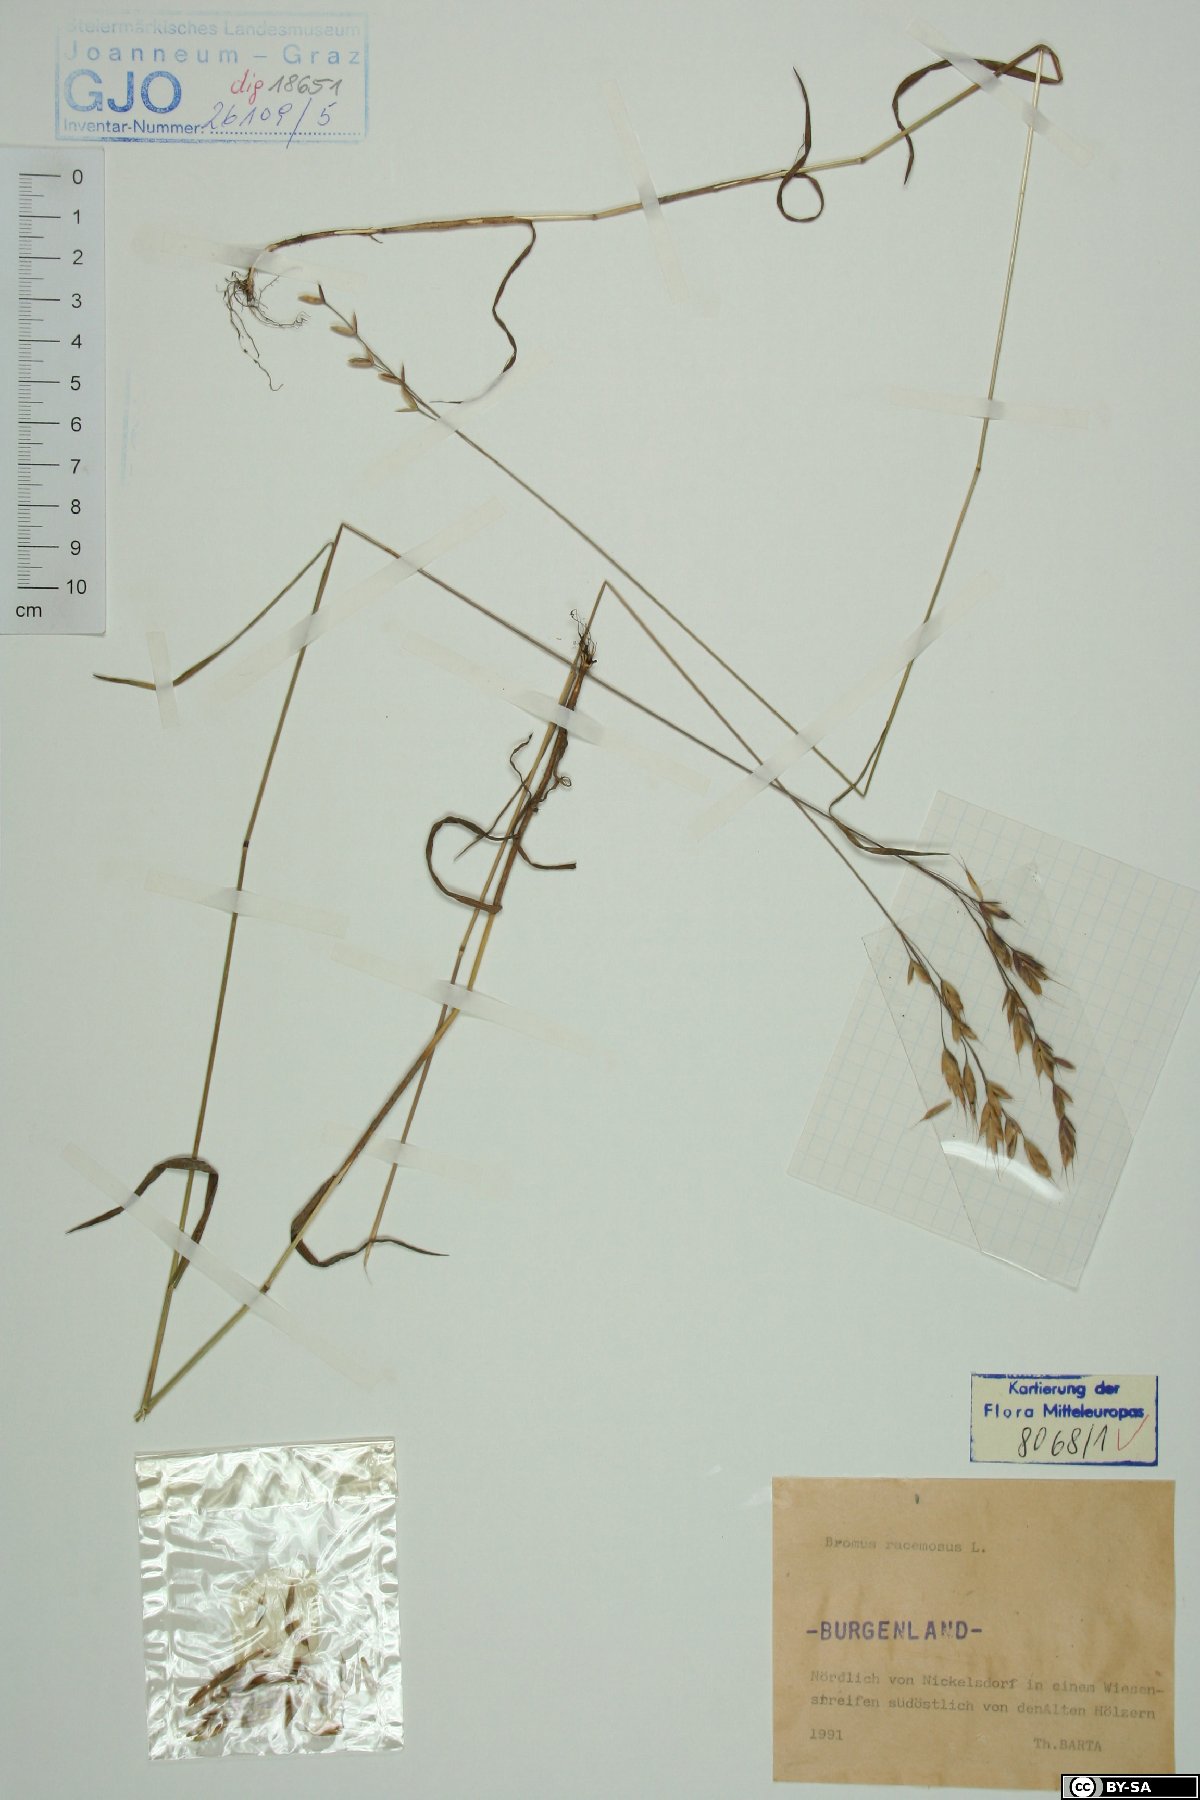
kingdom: Plantae
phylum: Tracheophyta
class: Liliopsida
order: Poales
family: Poaceae
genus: Bromus
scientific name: Bromus racemosus
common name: Bald brome
